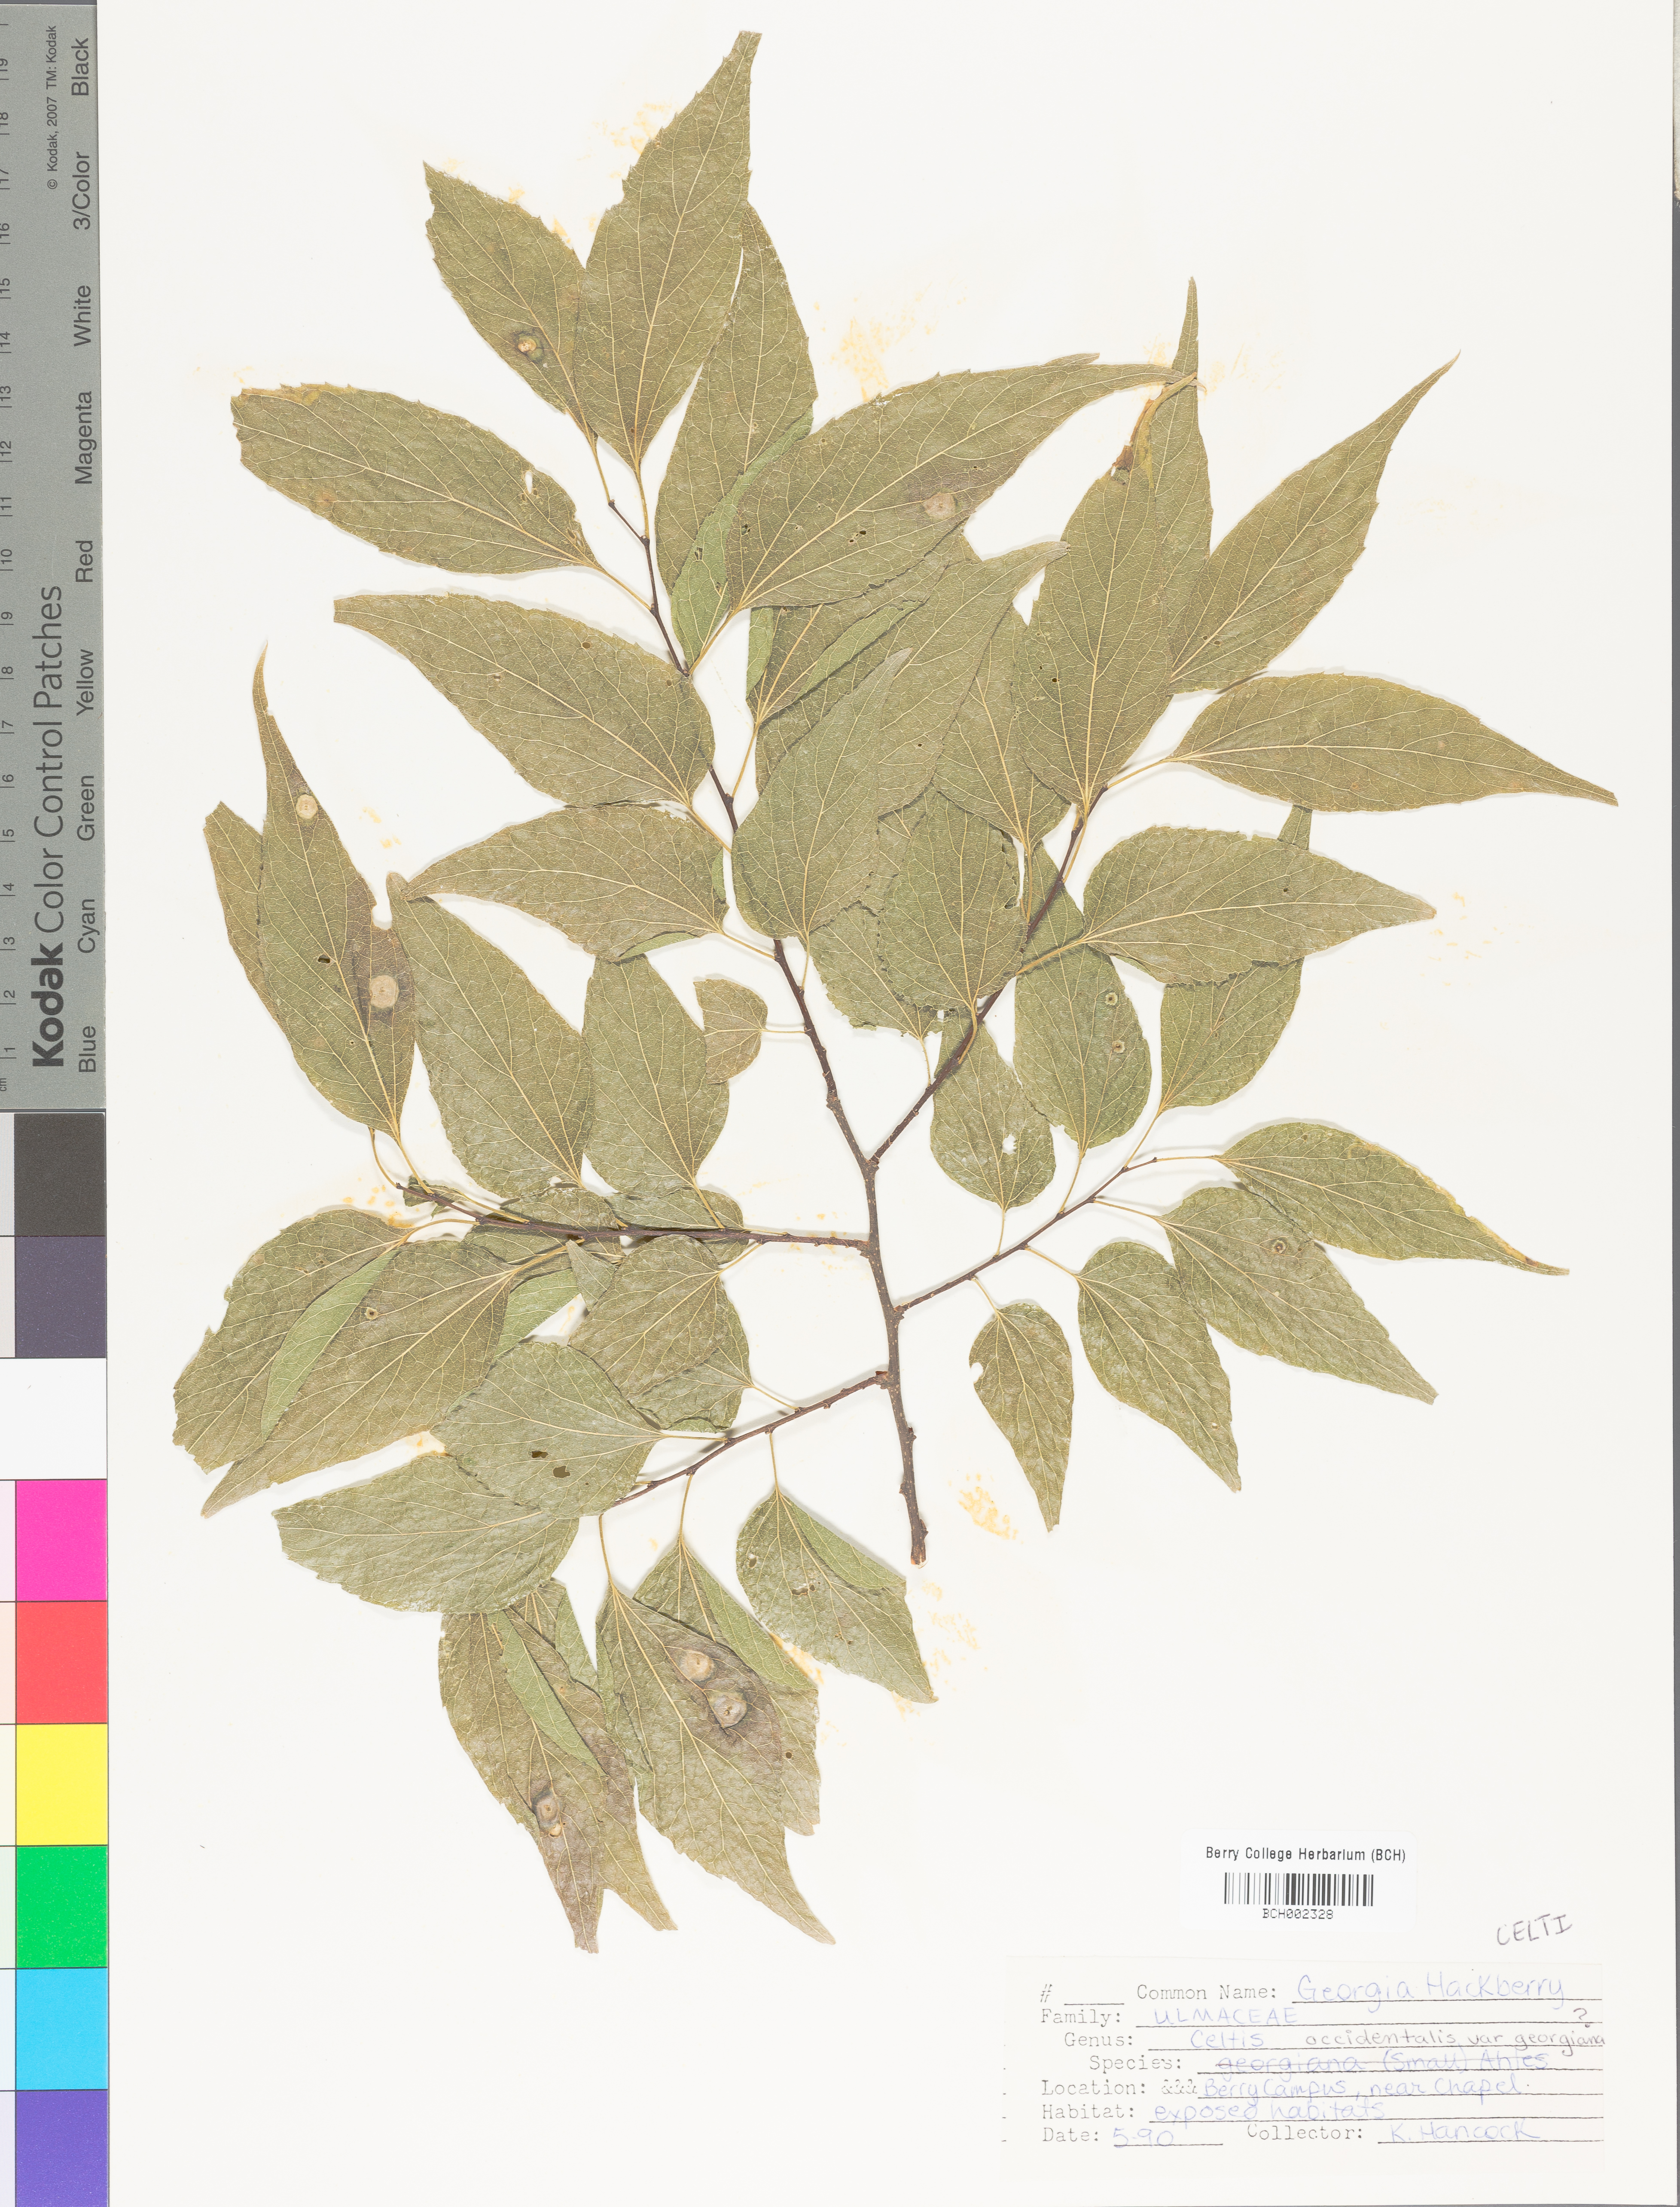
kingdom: Plantae
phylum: Tracheophyta
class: Magnoliopsida
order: Rosales
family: Cannabaceae
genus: Celtis
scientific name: Celtis
